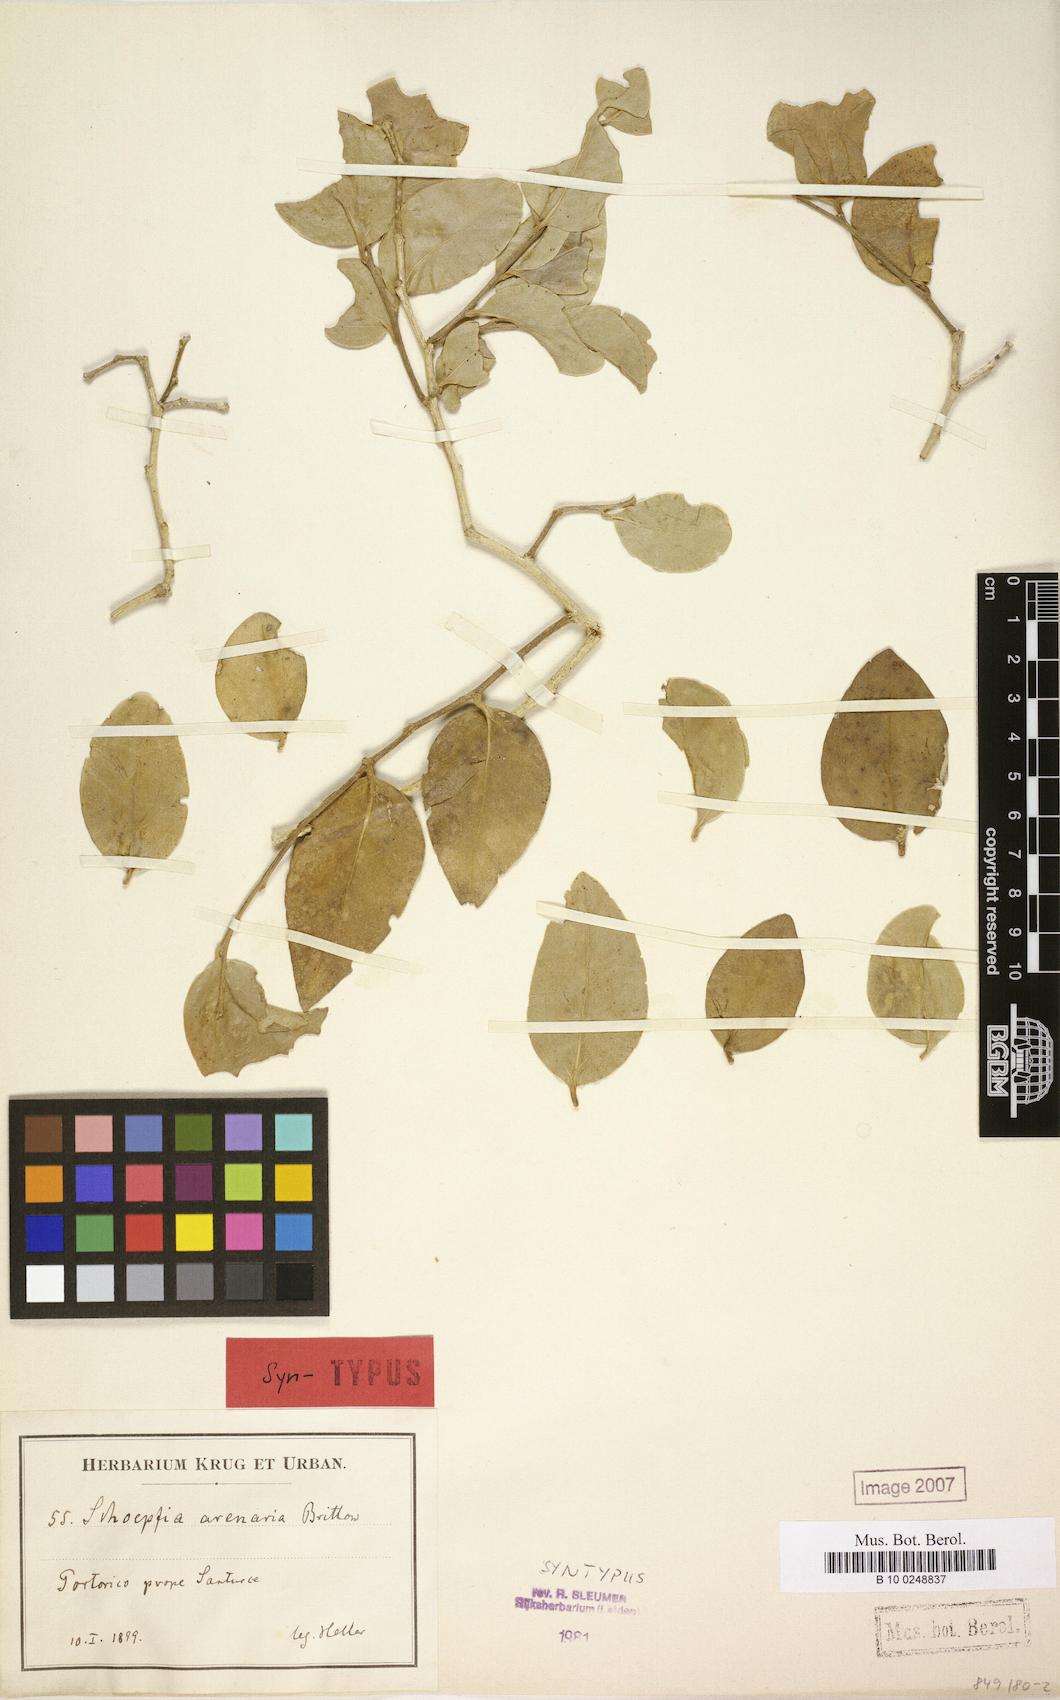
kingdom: Plantae
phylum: Tracheophyta
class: Magnoliopsida
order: Santalales
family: Schoepfiaceae
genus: Schoepfia
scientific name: Schoepfia arenaria
